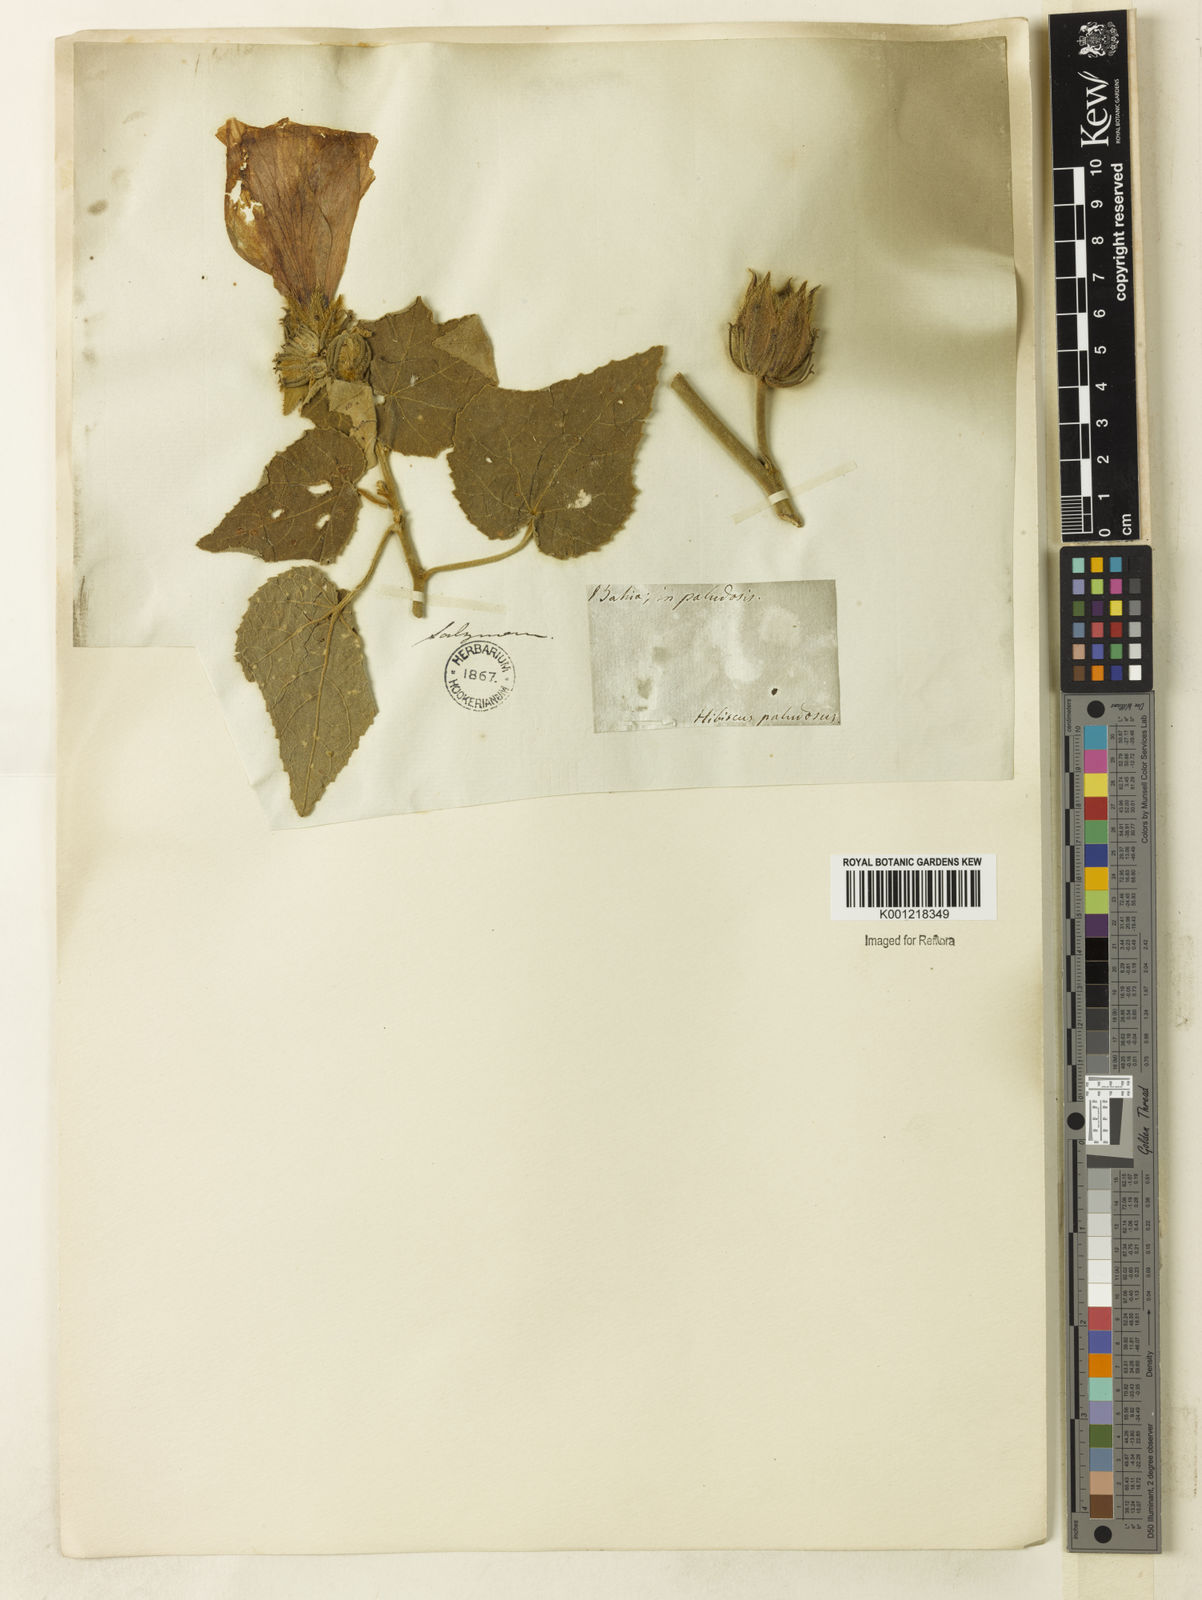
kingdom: Plantae
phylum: Tracheophyta
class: Magnoliopsida
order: Malvales
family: Malvaceae
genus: Hibiscus
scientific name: Hibiscus furcellatus
